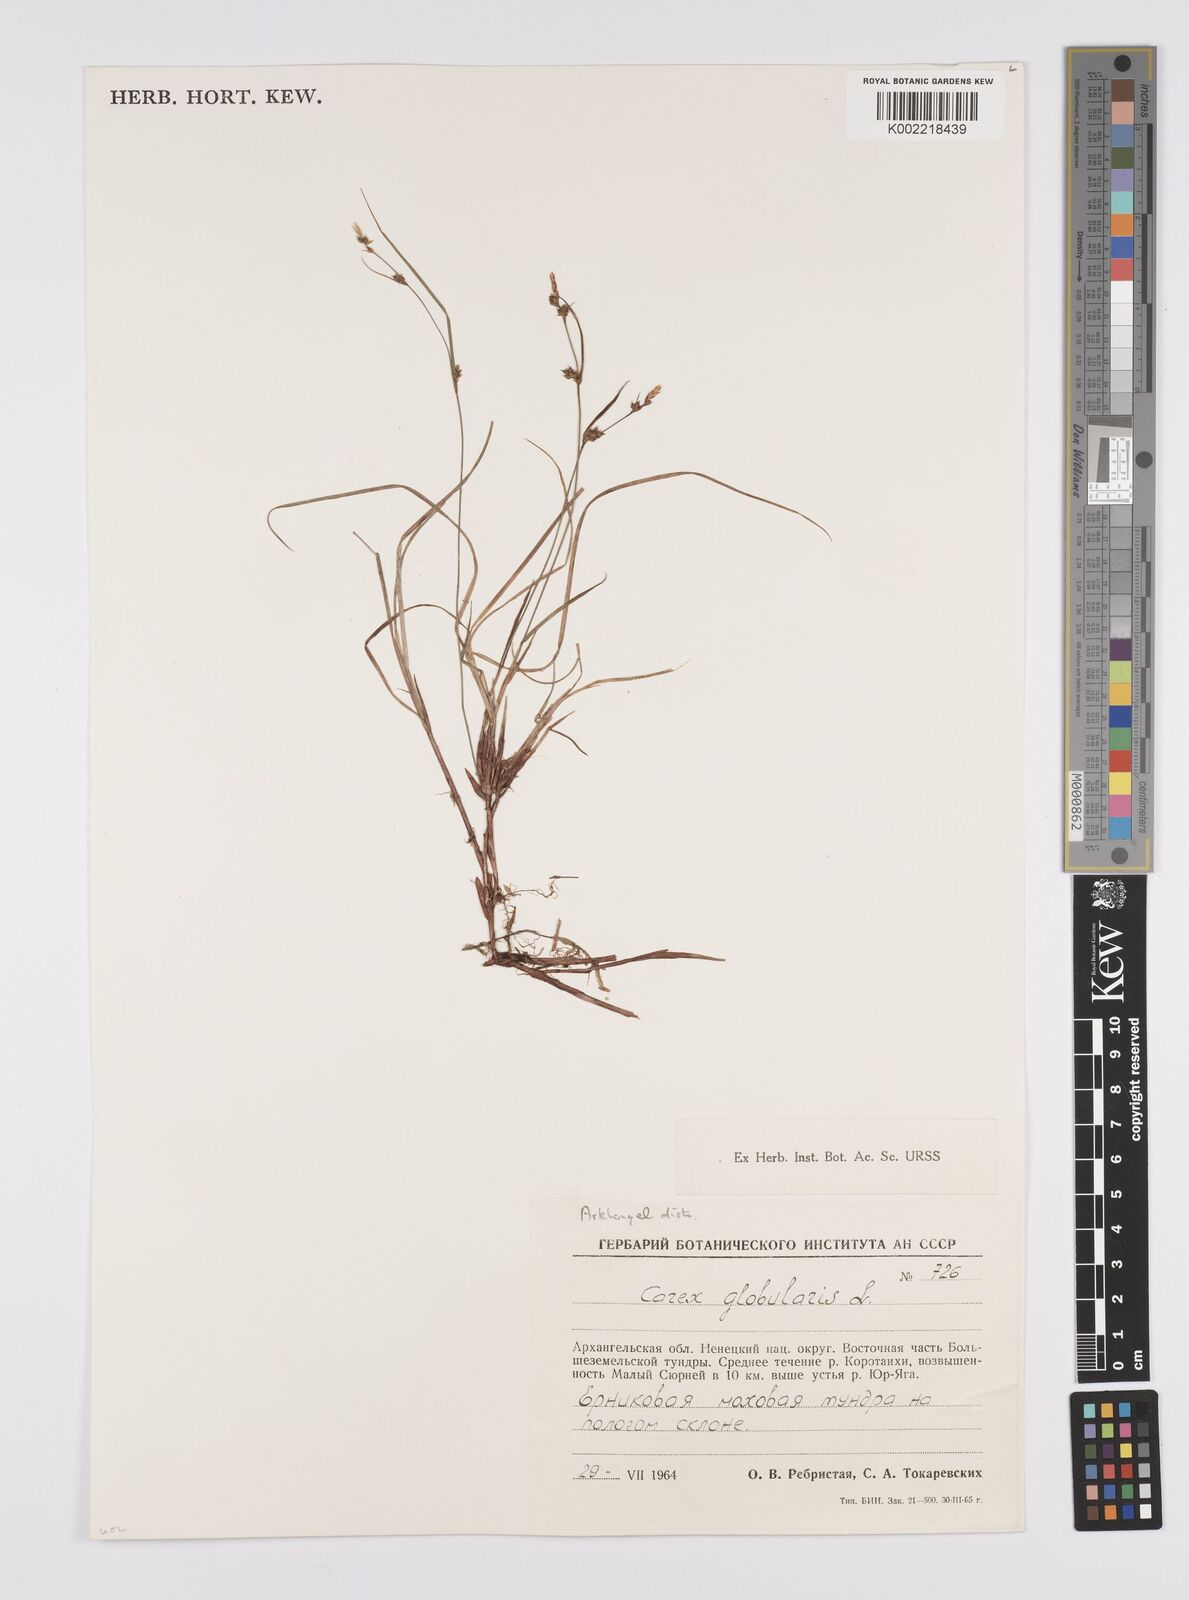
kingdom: Plantae
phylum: Tracheophyta
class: Liliopsida
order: Poales
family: Cyperaceae
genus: Carex
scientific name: Carex globularis
